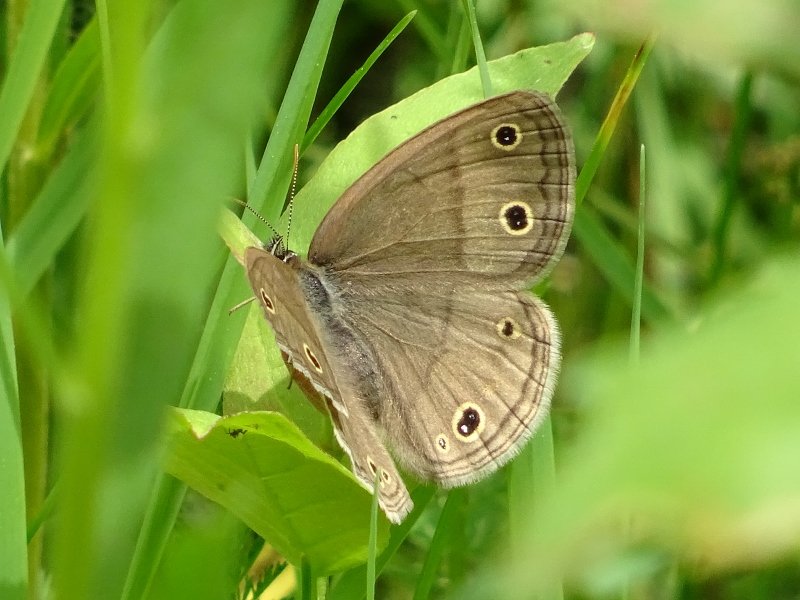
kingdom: Animalia
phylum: Arthropoda
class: Insecta
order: Lepidoptera
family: Nymphalidae
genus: Euptychia
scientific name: Euptychia cymela
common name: Little Wood Satyr
